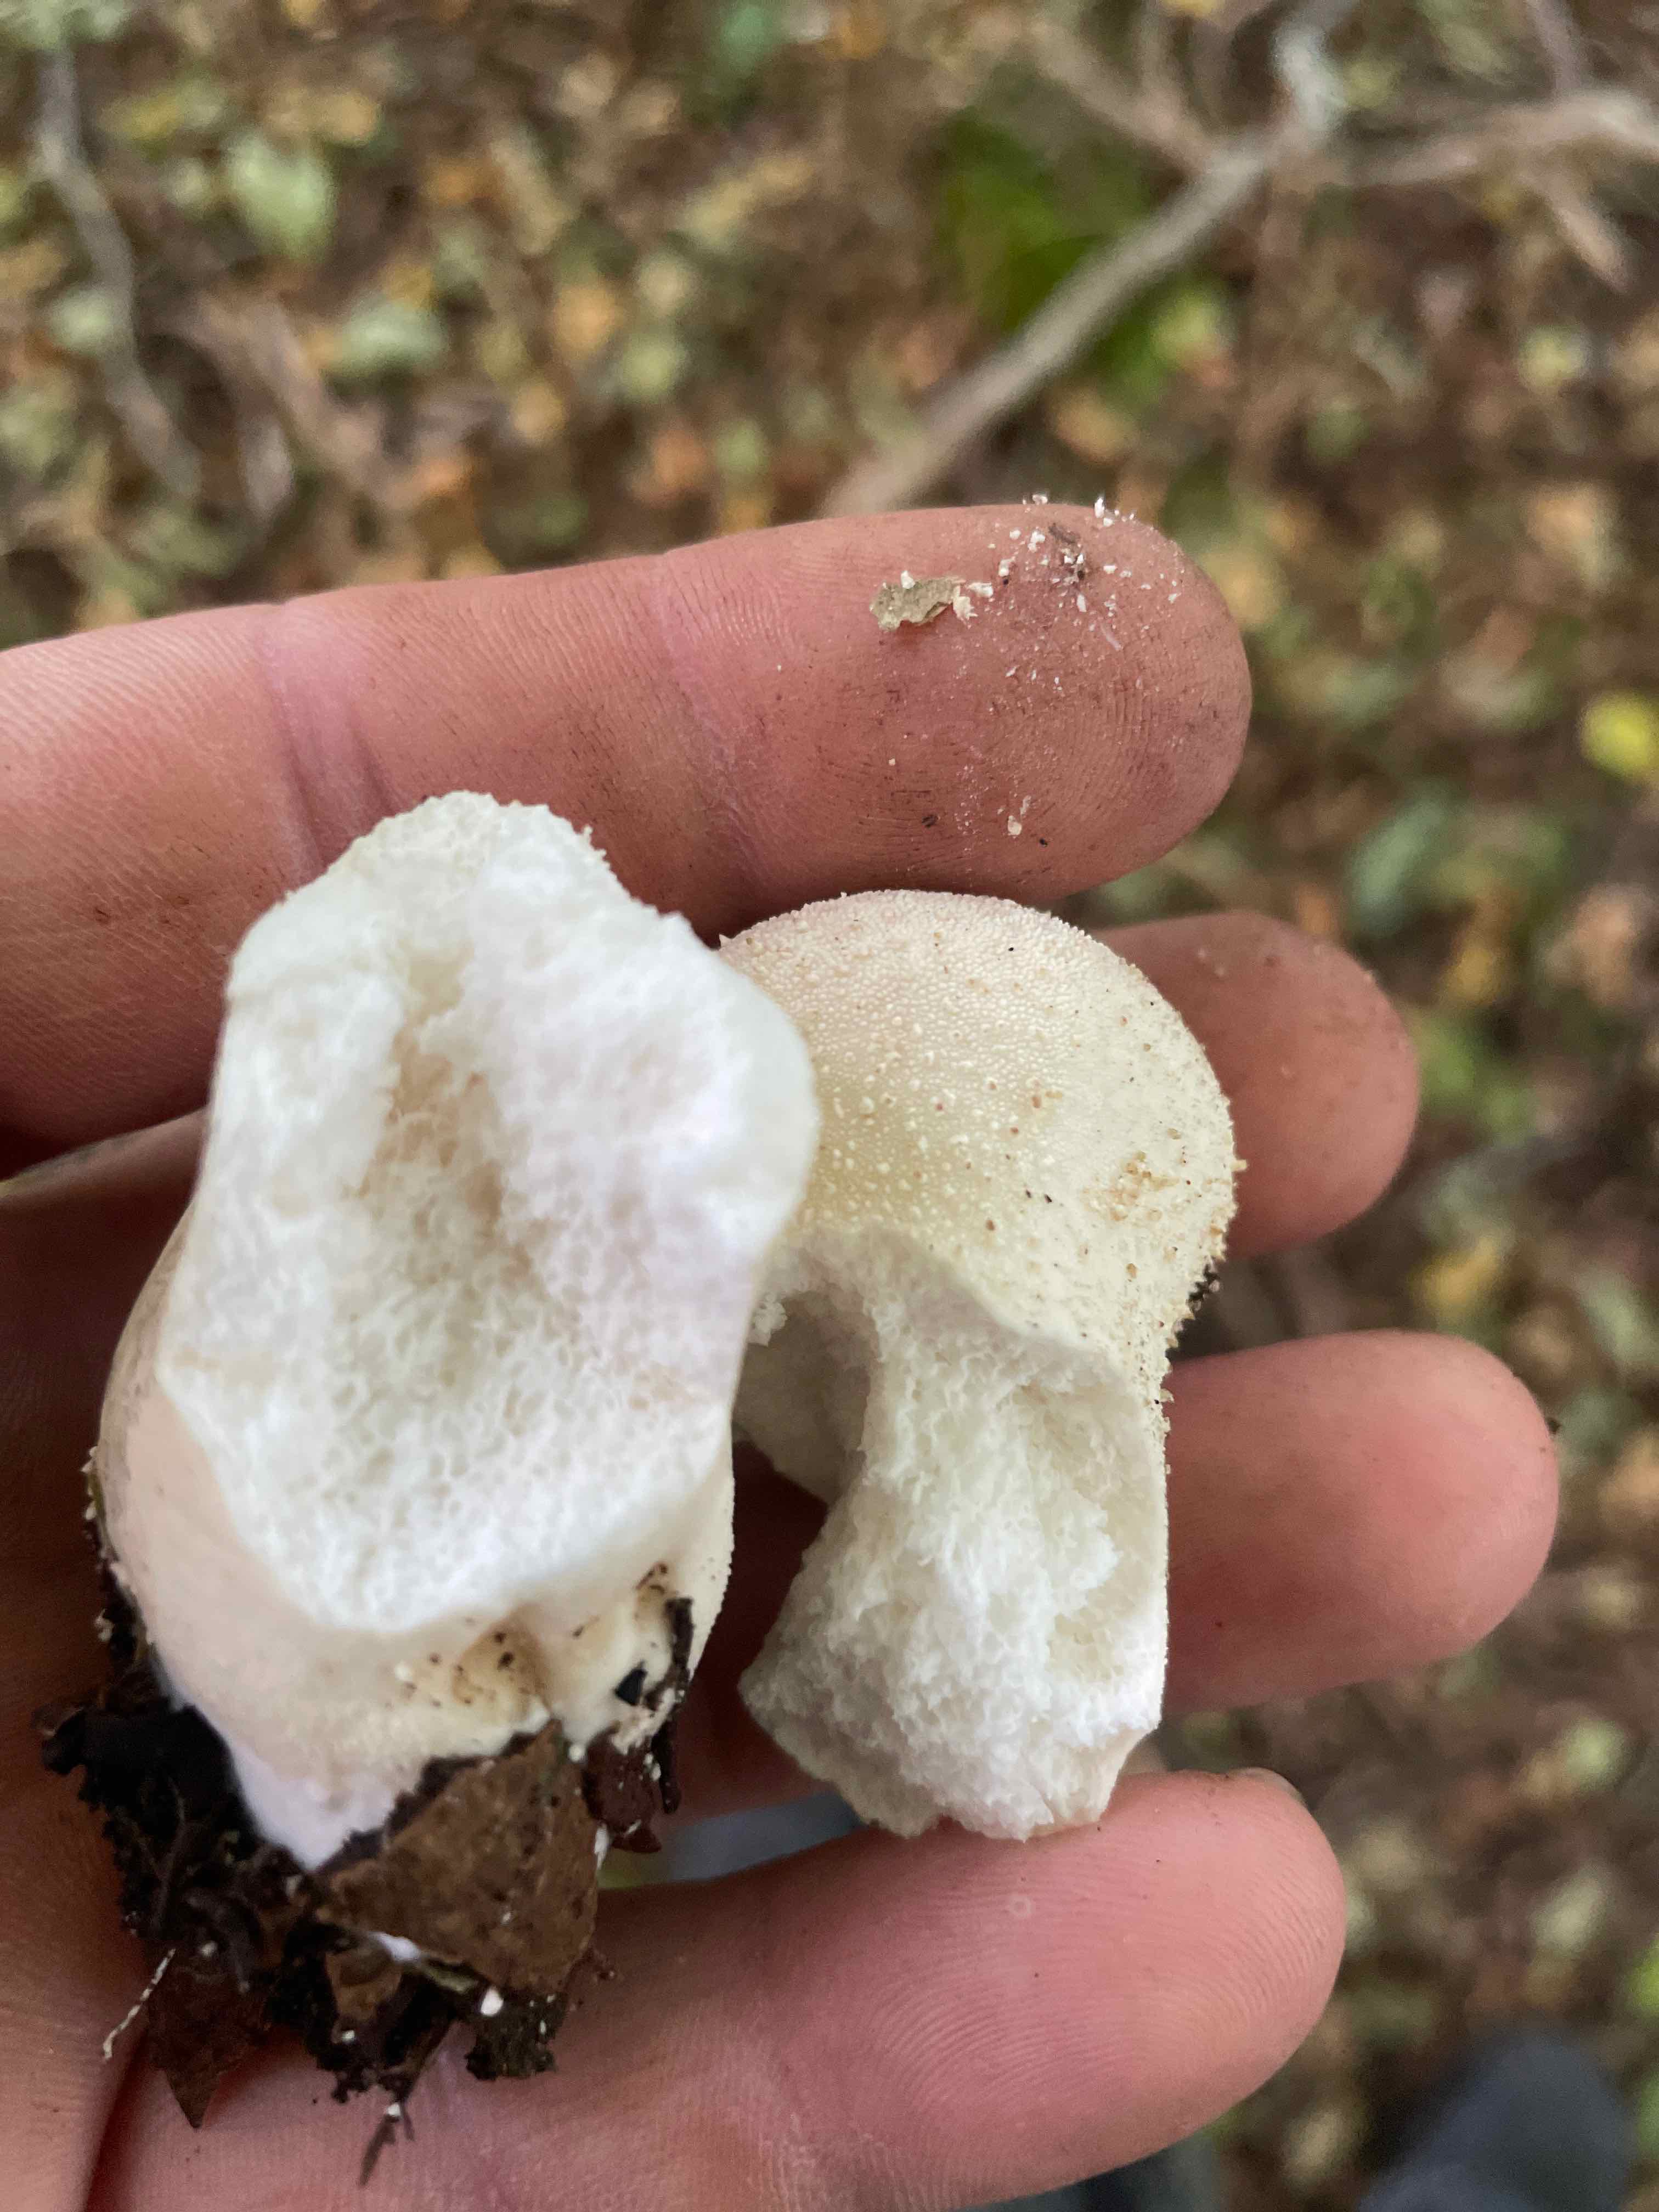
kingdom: Fungi
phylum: Basidiomycota
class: Agaricomycetes
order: Agaricales
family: Agaricaceae
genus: Lycoperdon
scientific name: Lycoperdon
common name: støvbold
